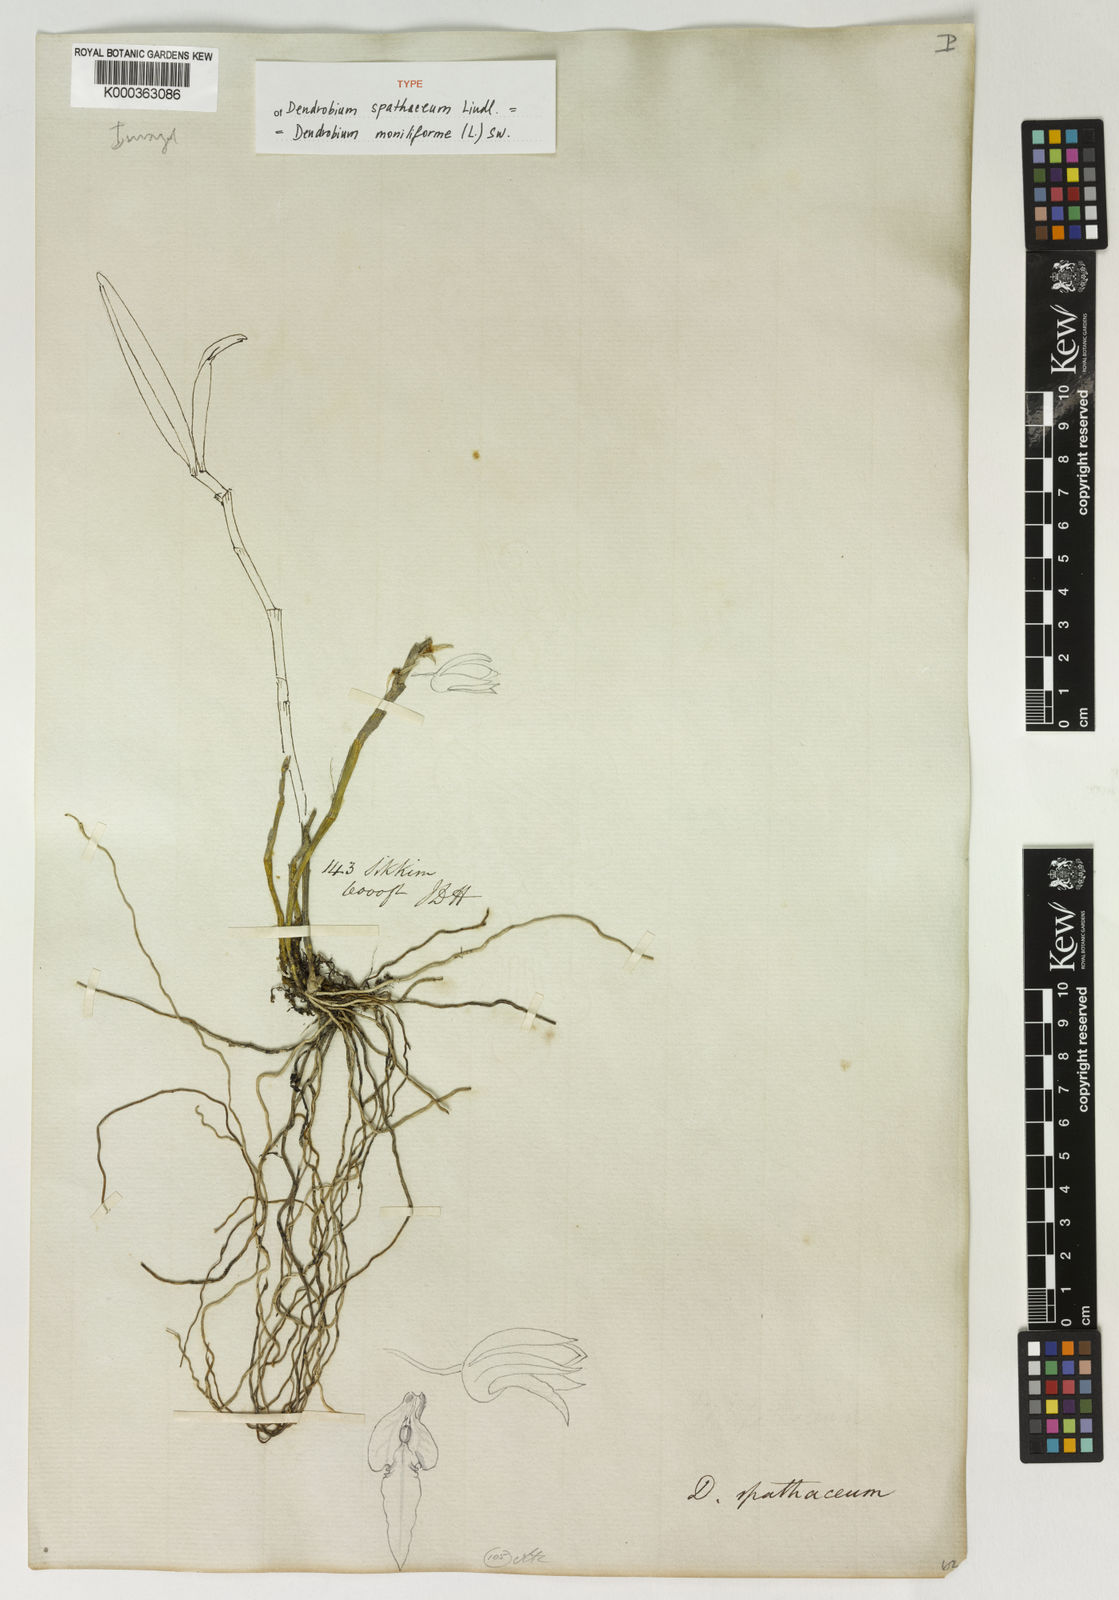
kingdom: Plantae
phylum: Tracheophyta
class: Liliopsida
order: Asparagales
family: Orchidaceae
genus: Dendrobium
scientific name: Dendrobium moniliforme
